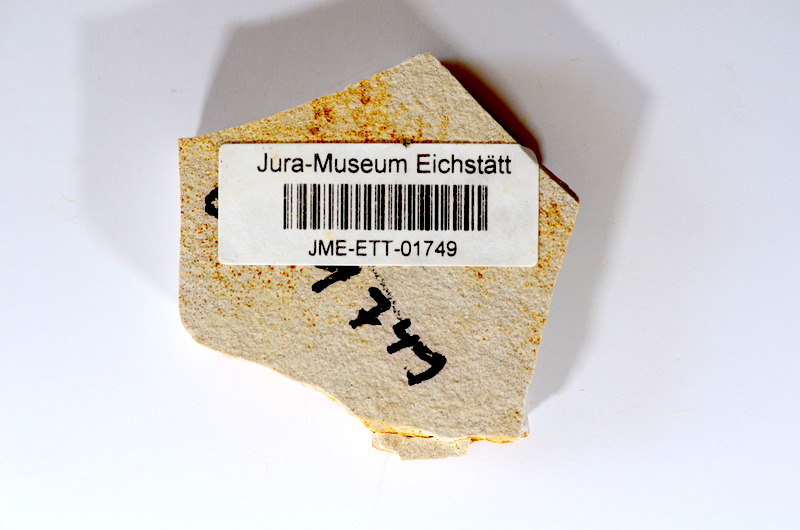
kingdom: Animalia
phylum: Chordata
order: Salmoniformes
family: Orthogonikleithridae
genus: Orthogonikleithrus
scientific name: Orthogonikleithrus hoelli
